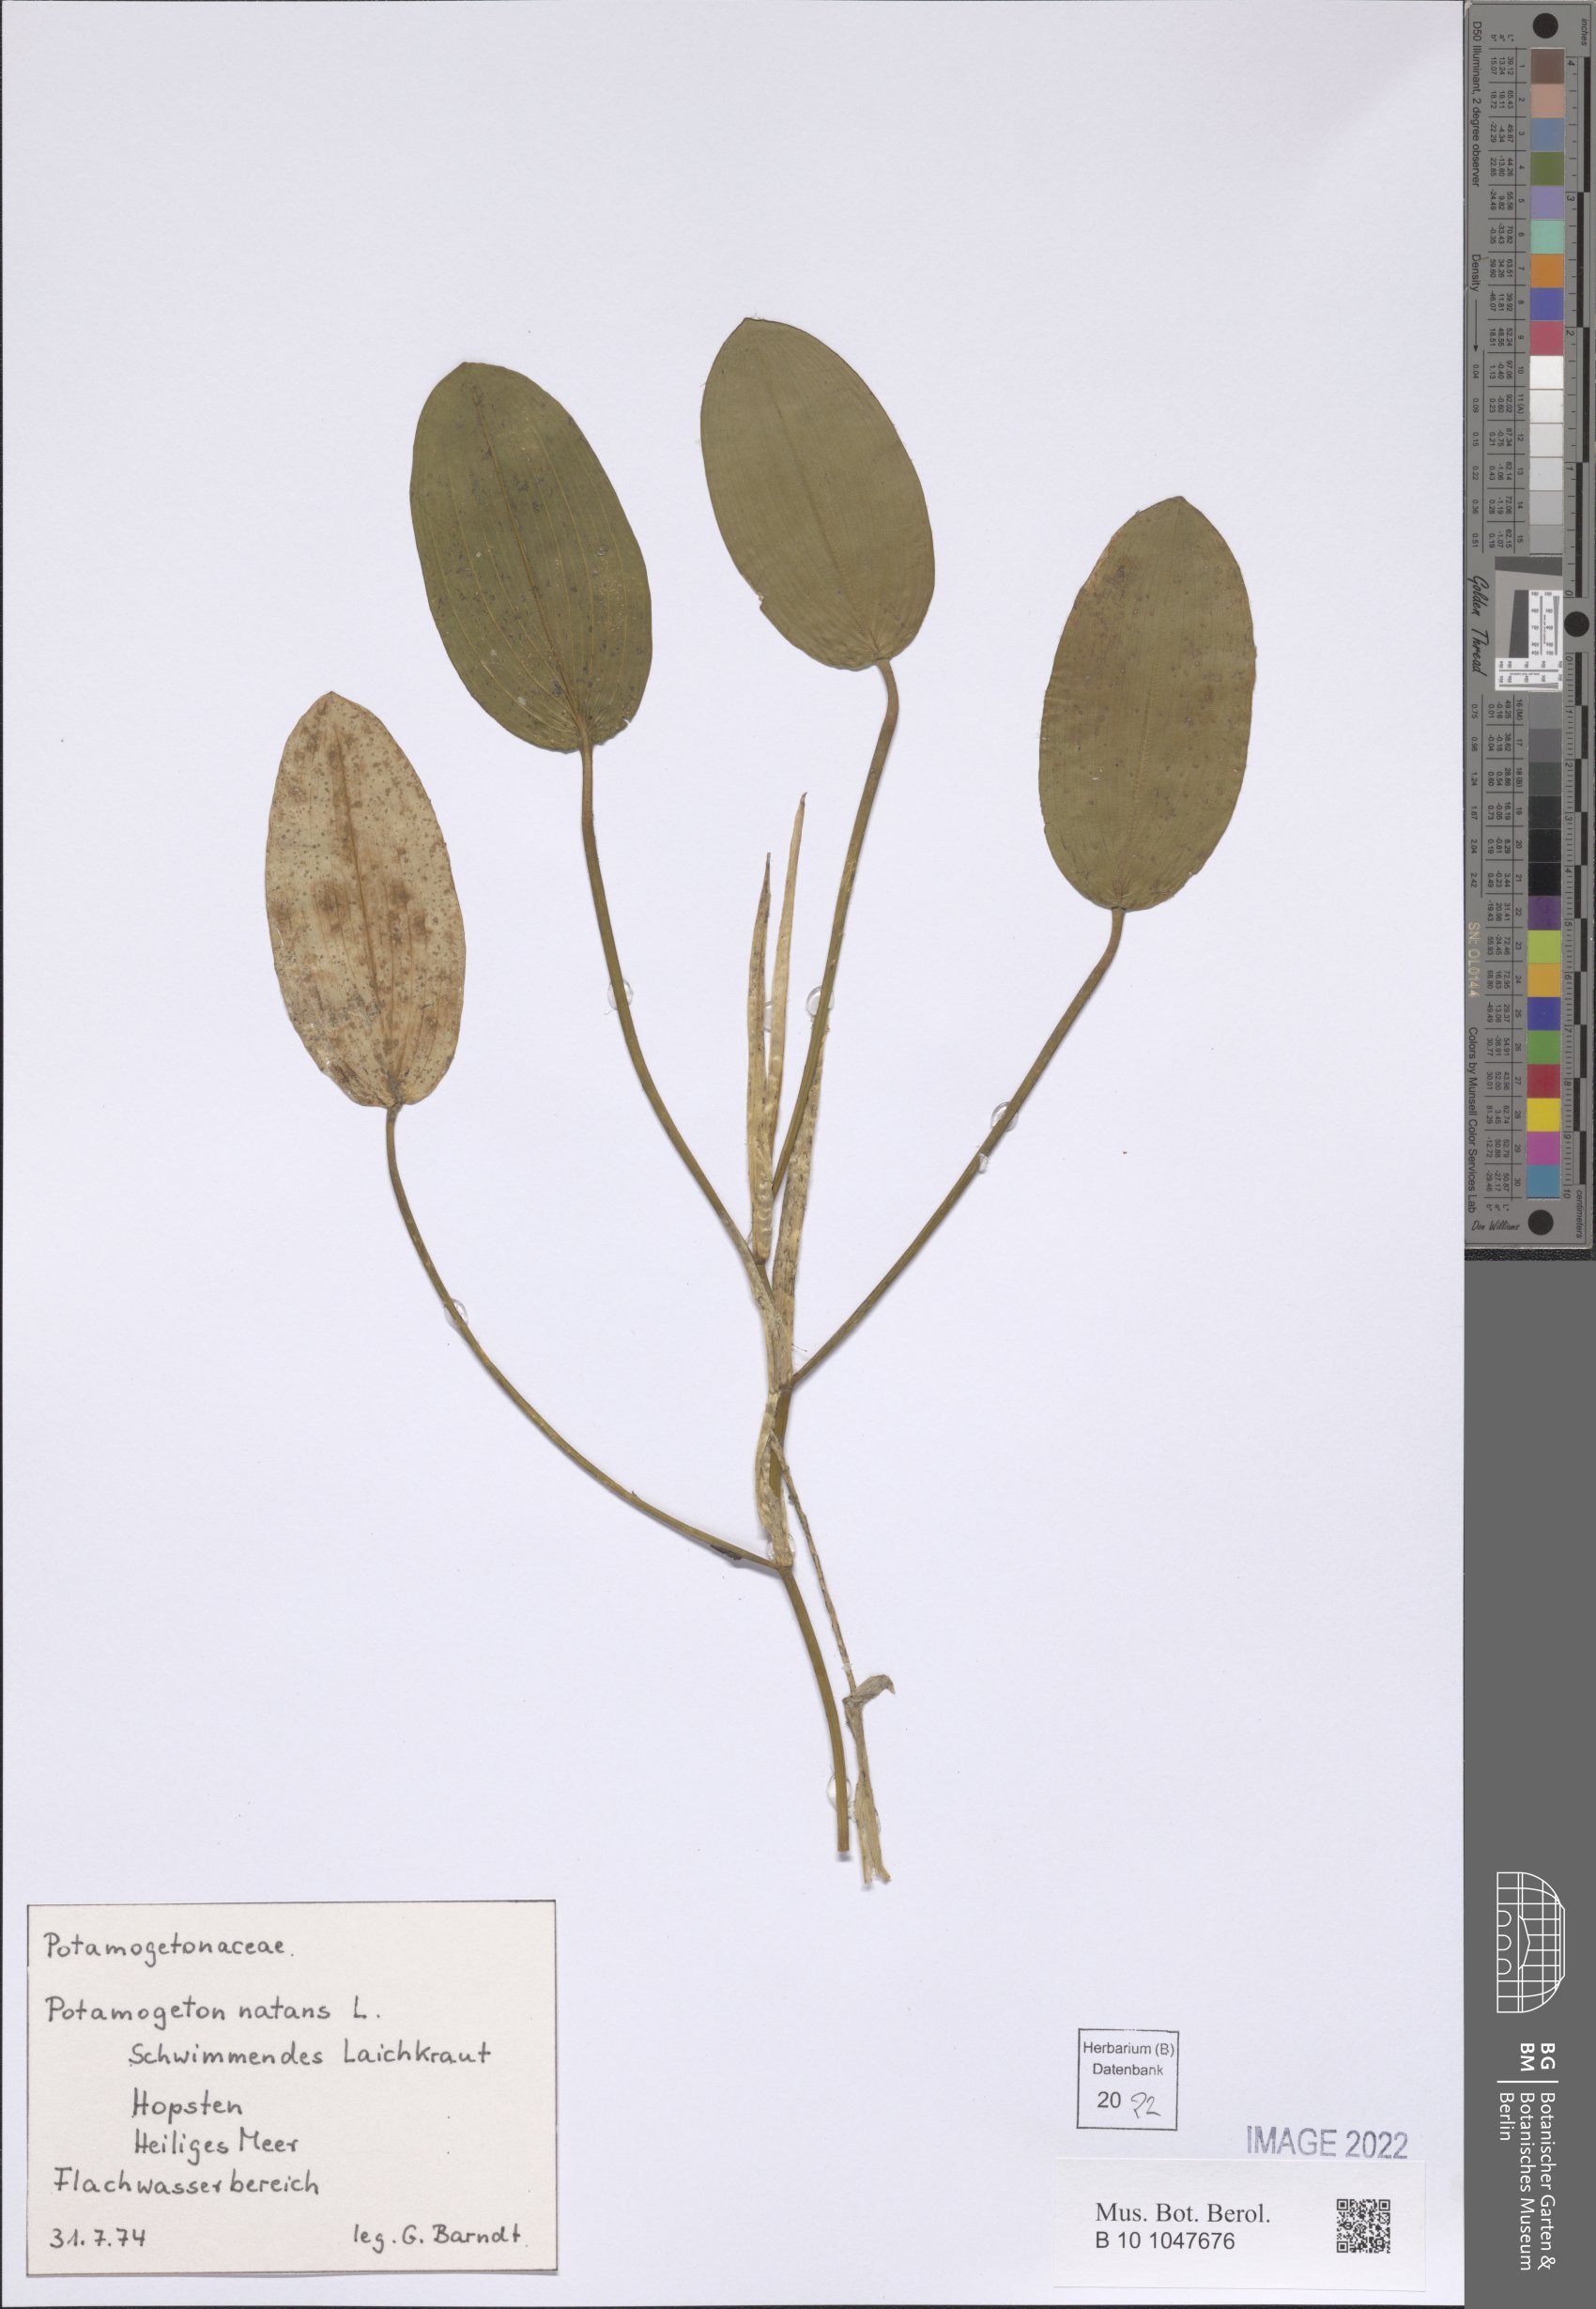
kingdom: Plantae
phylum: Tracheophyta
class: Liliopsida
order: Alismatales
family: Potamogetonaceae
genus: Potamogeton
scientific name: Potamogeton natans
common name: Broad-leaved pondweed
